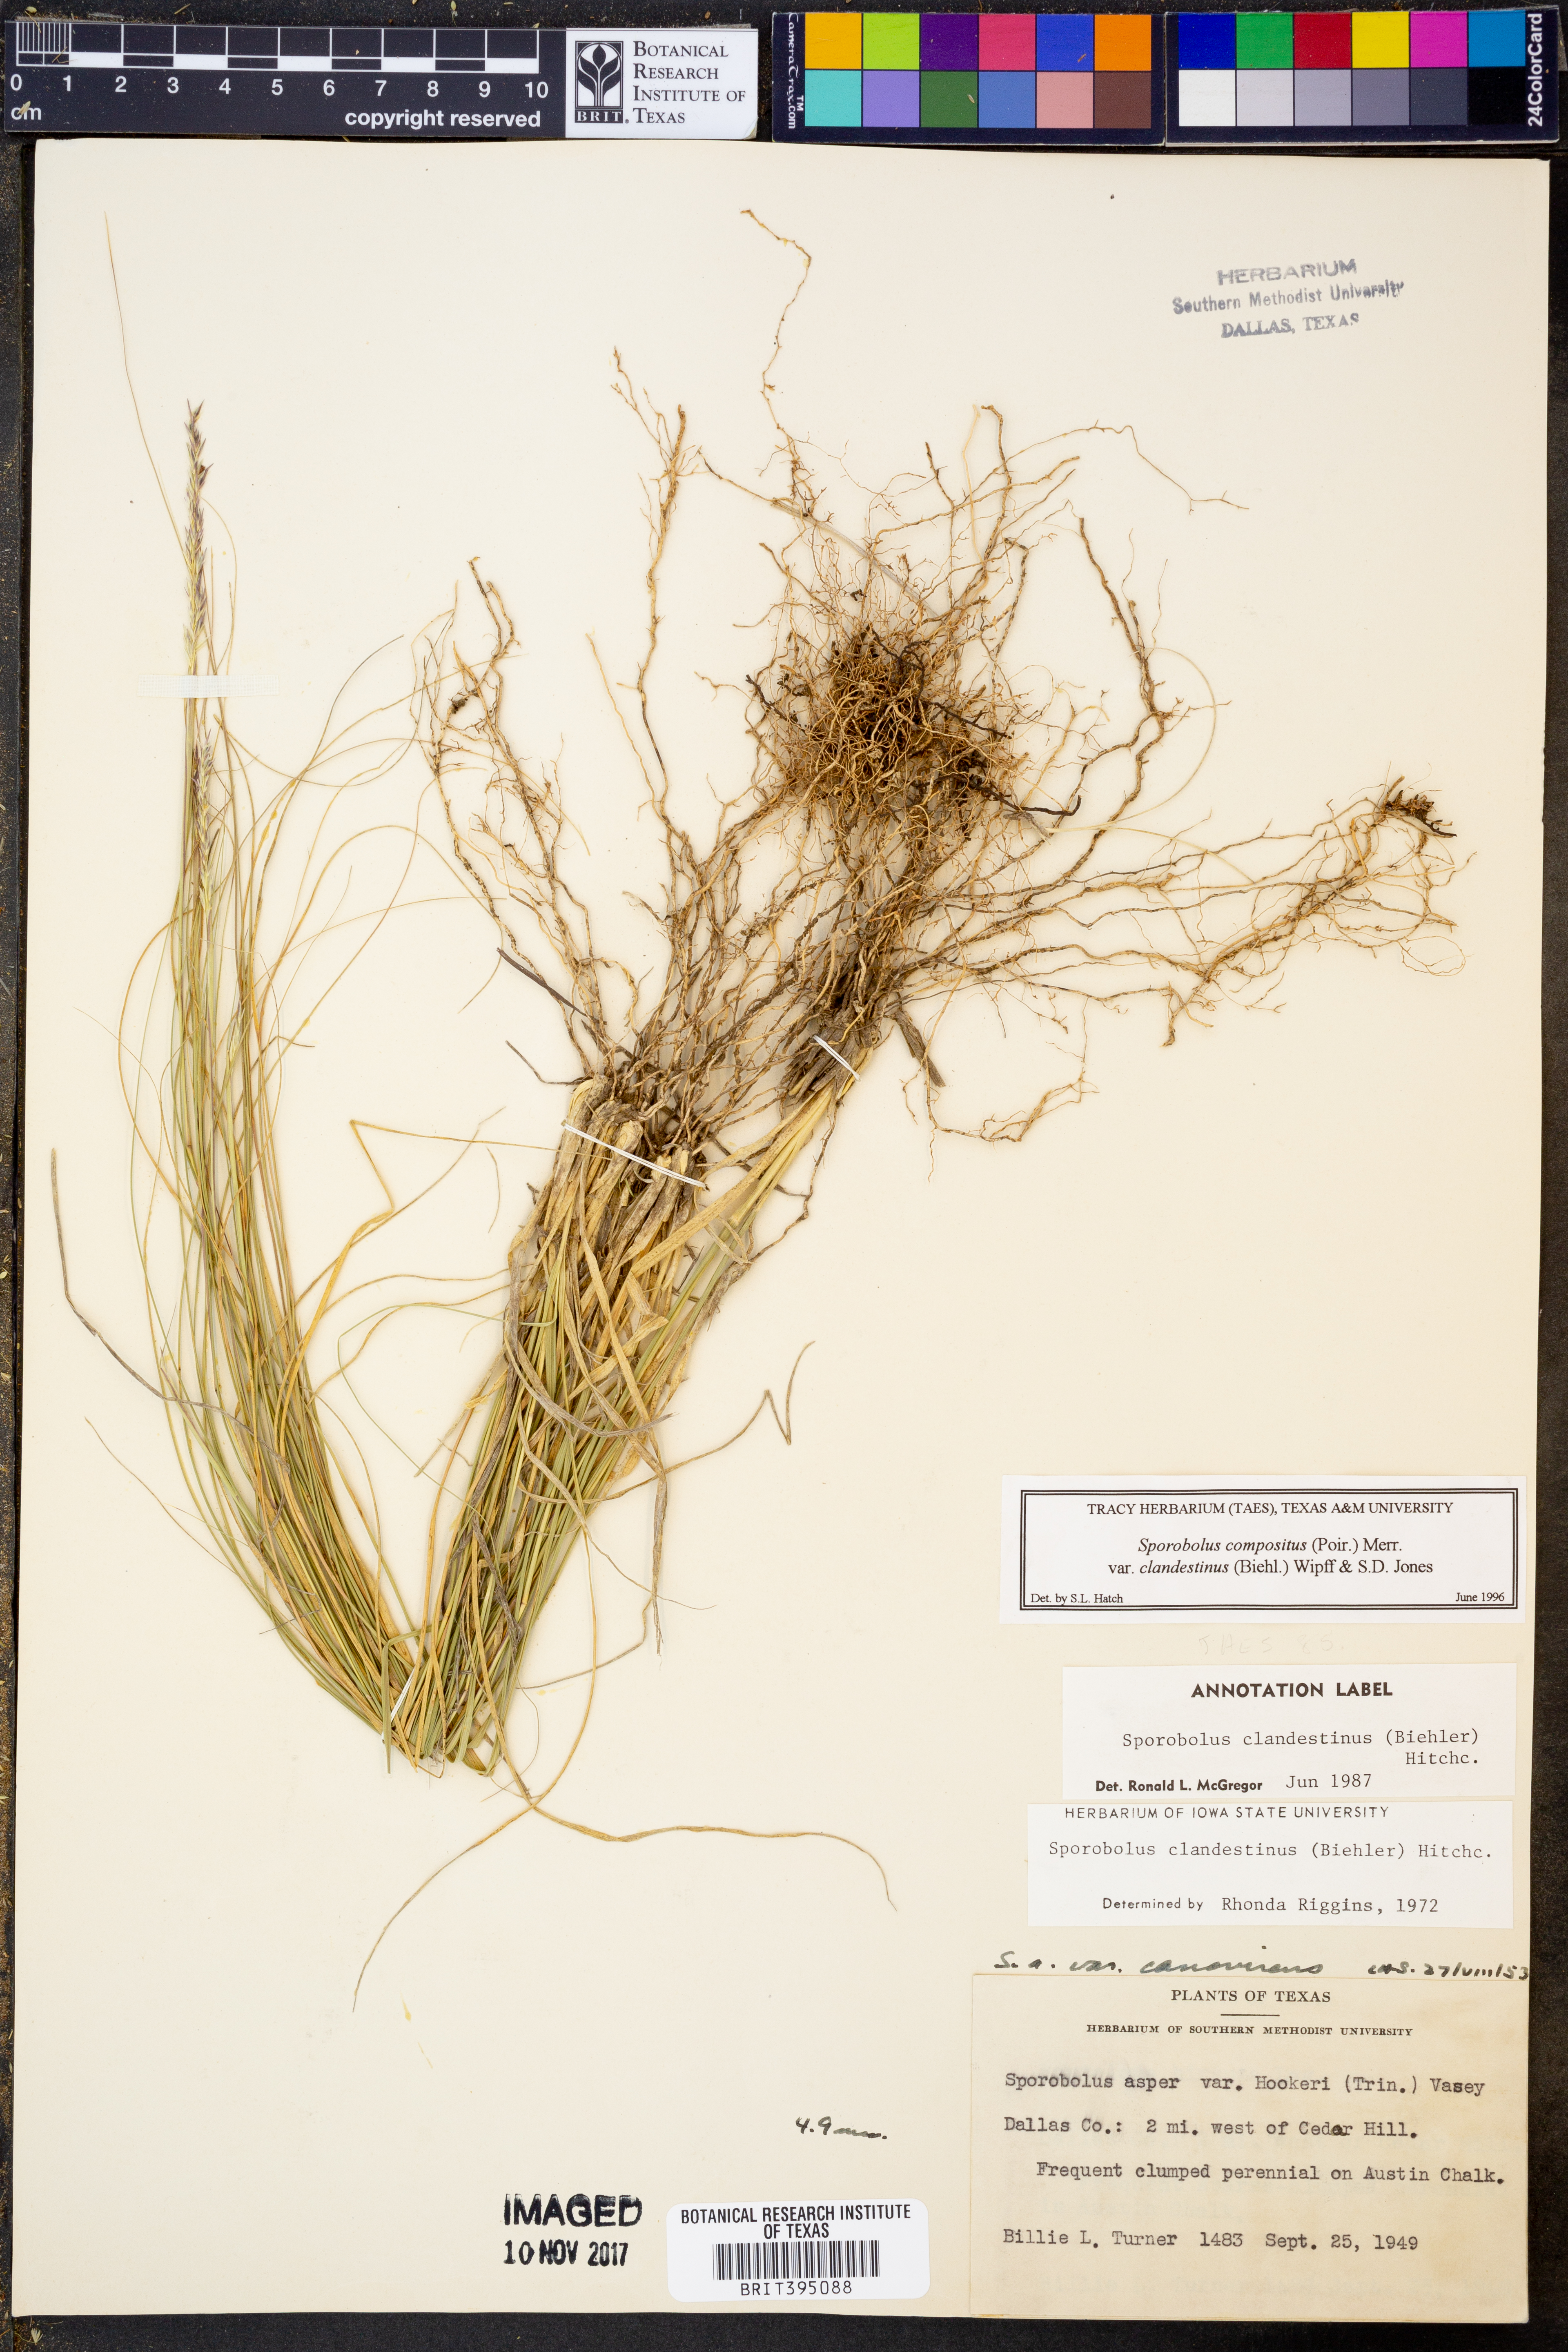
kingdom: Plantae
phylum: Tracheophyta
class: Liliopsida
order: Poales
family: Poaceae
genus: Sporobolus
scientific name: Sporobolus clandestinus
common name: Hidden dropseed
